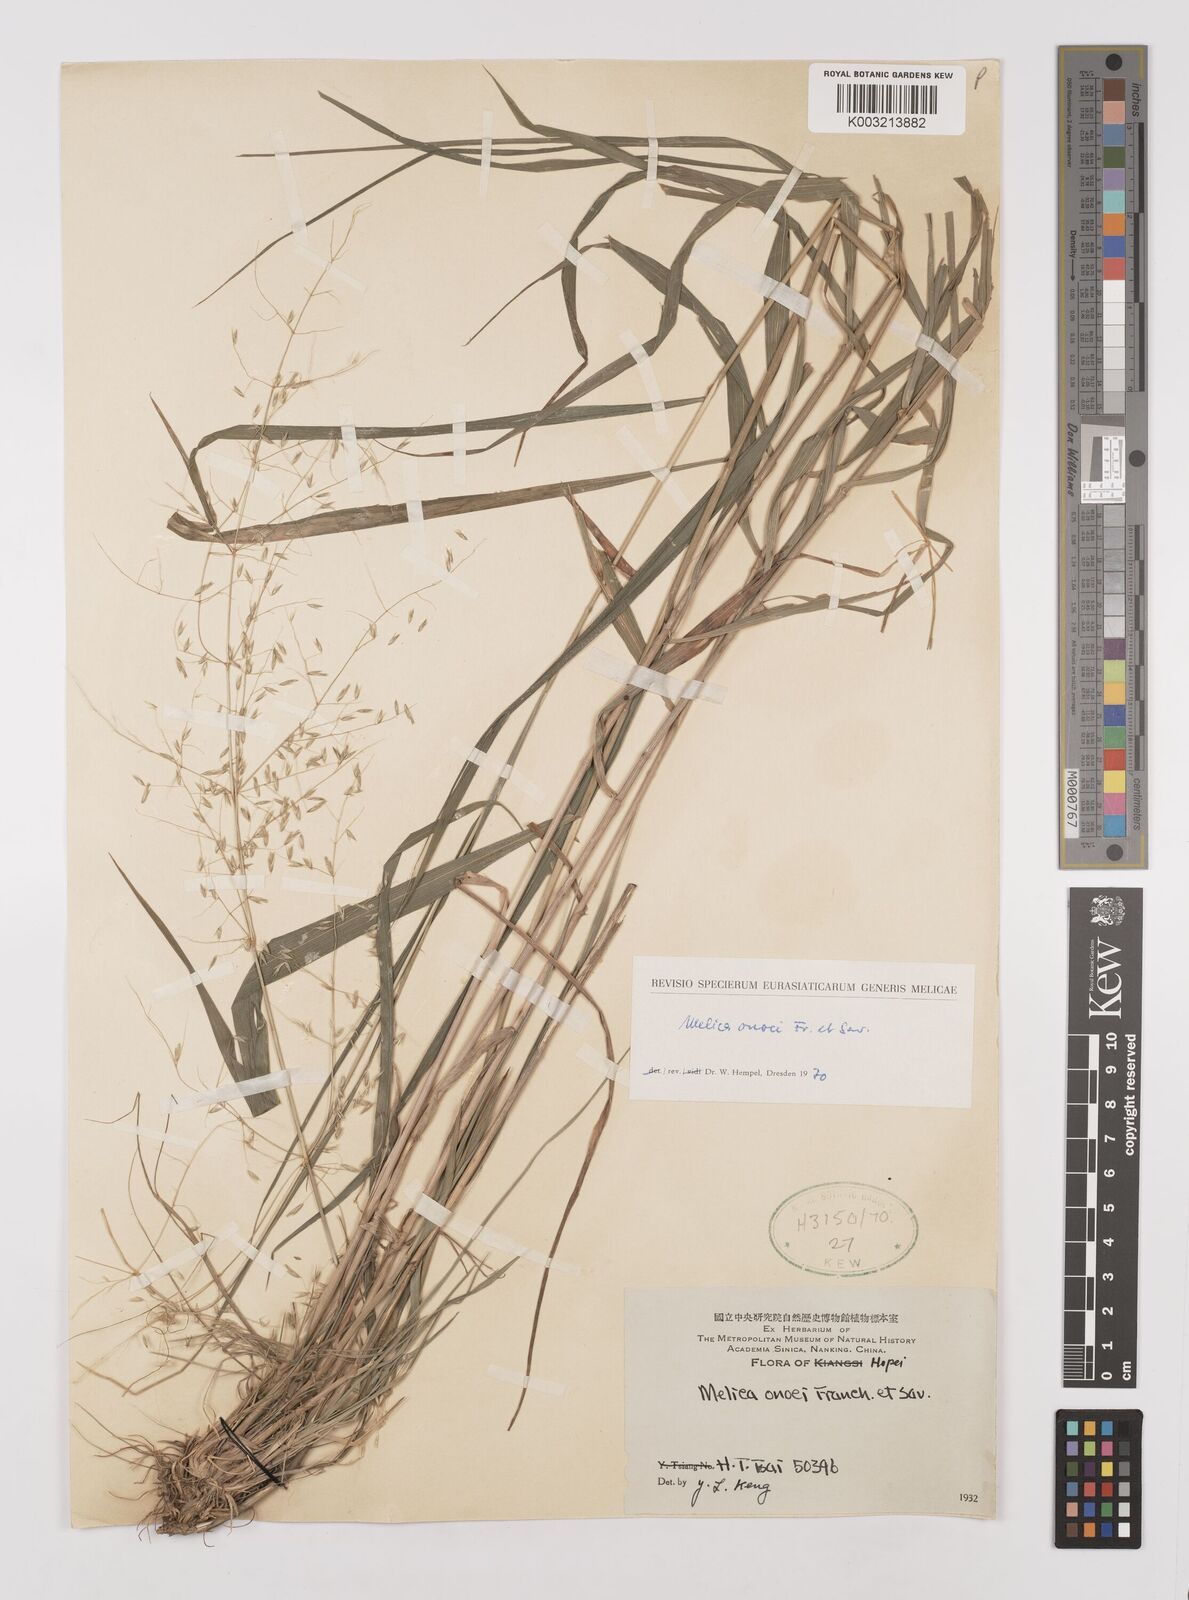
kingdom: Plantae
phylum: Tracheophyta
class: Liliopsida
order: Poales
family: Poaceae
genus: Melica
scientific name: Melica onoei
